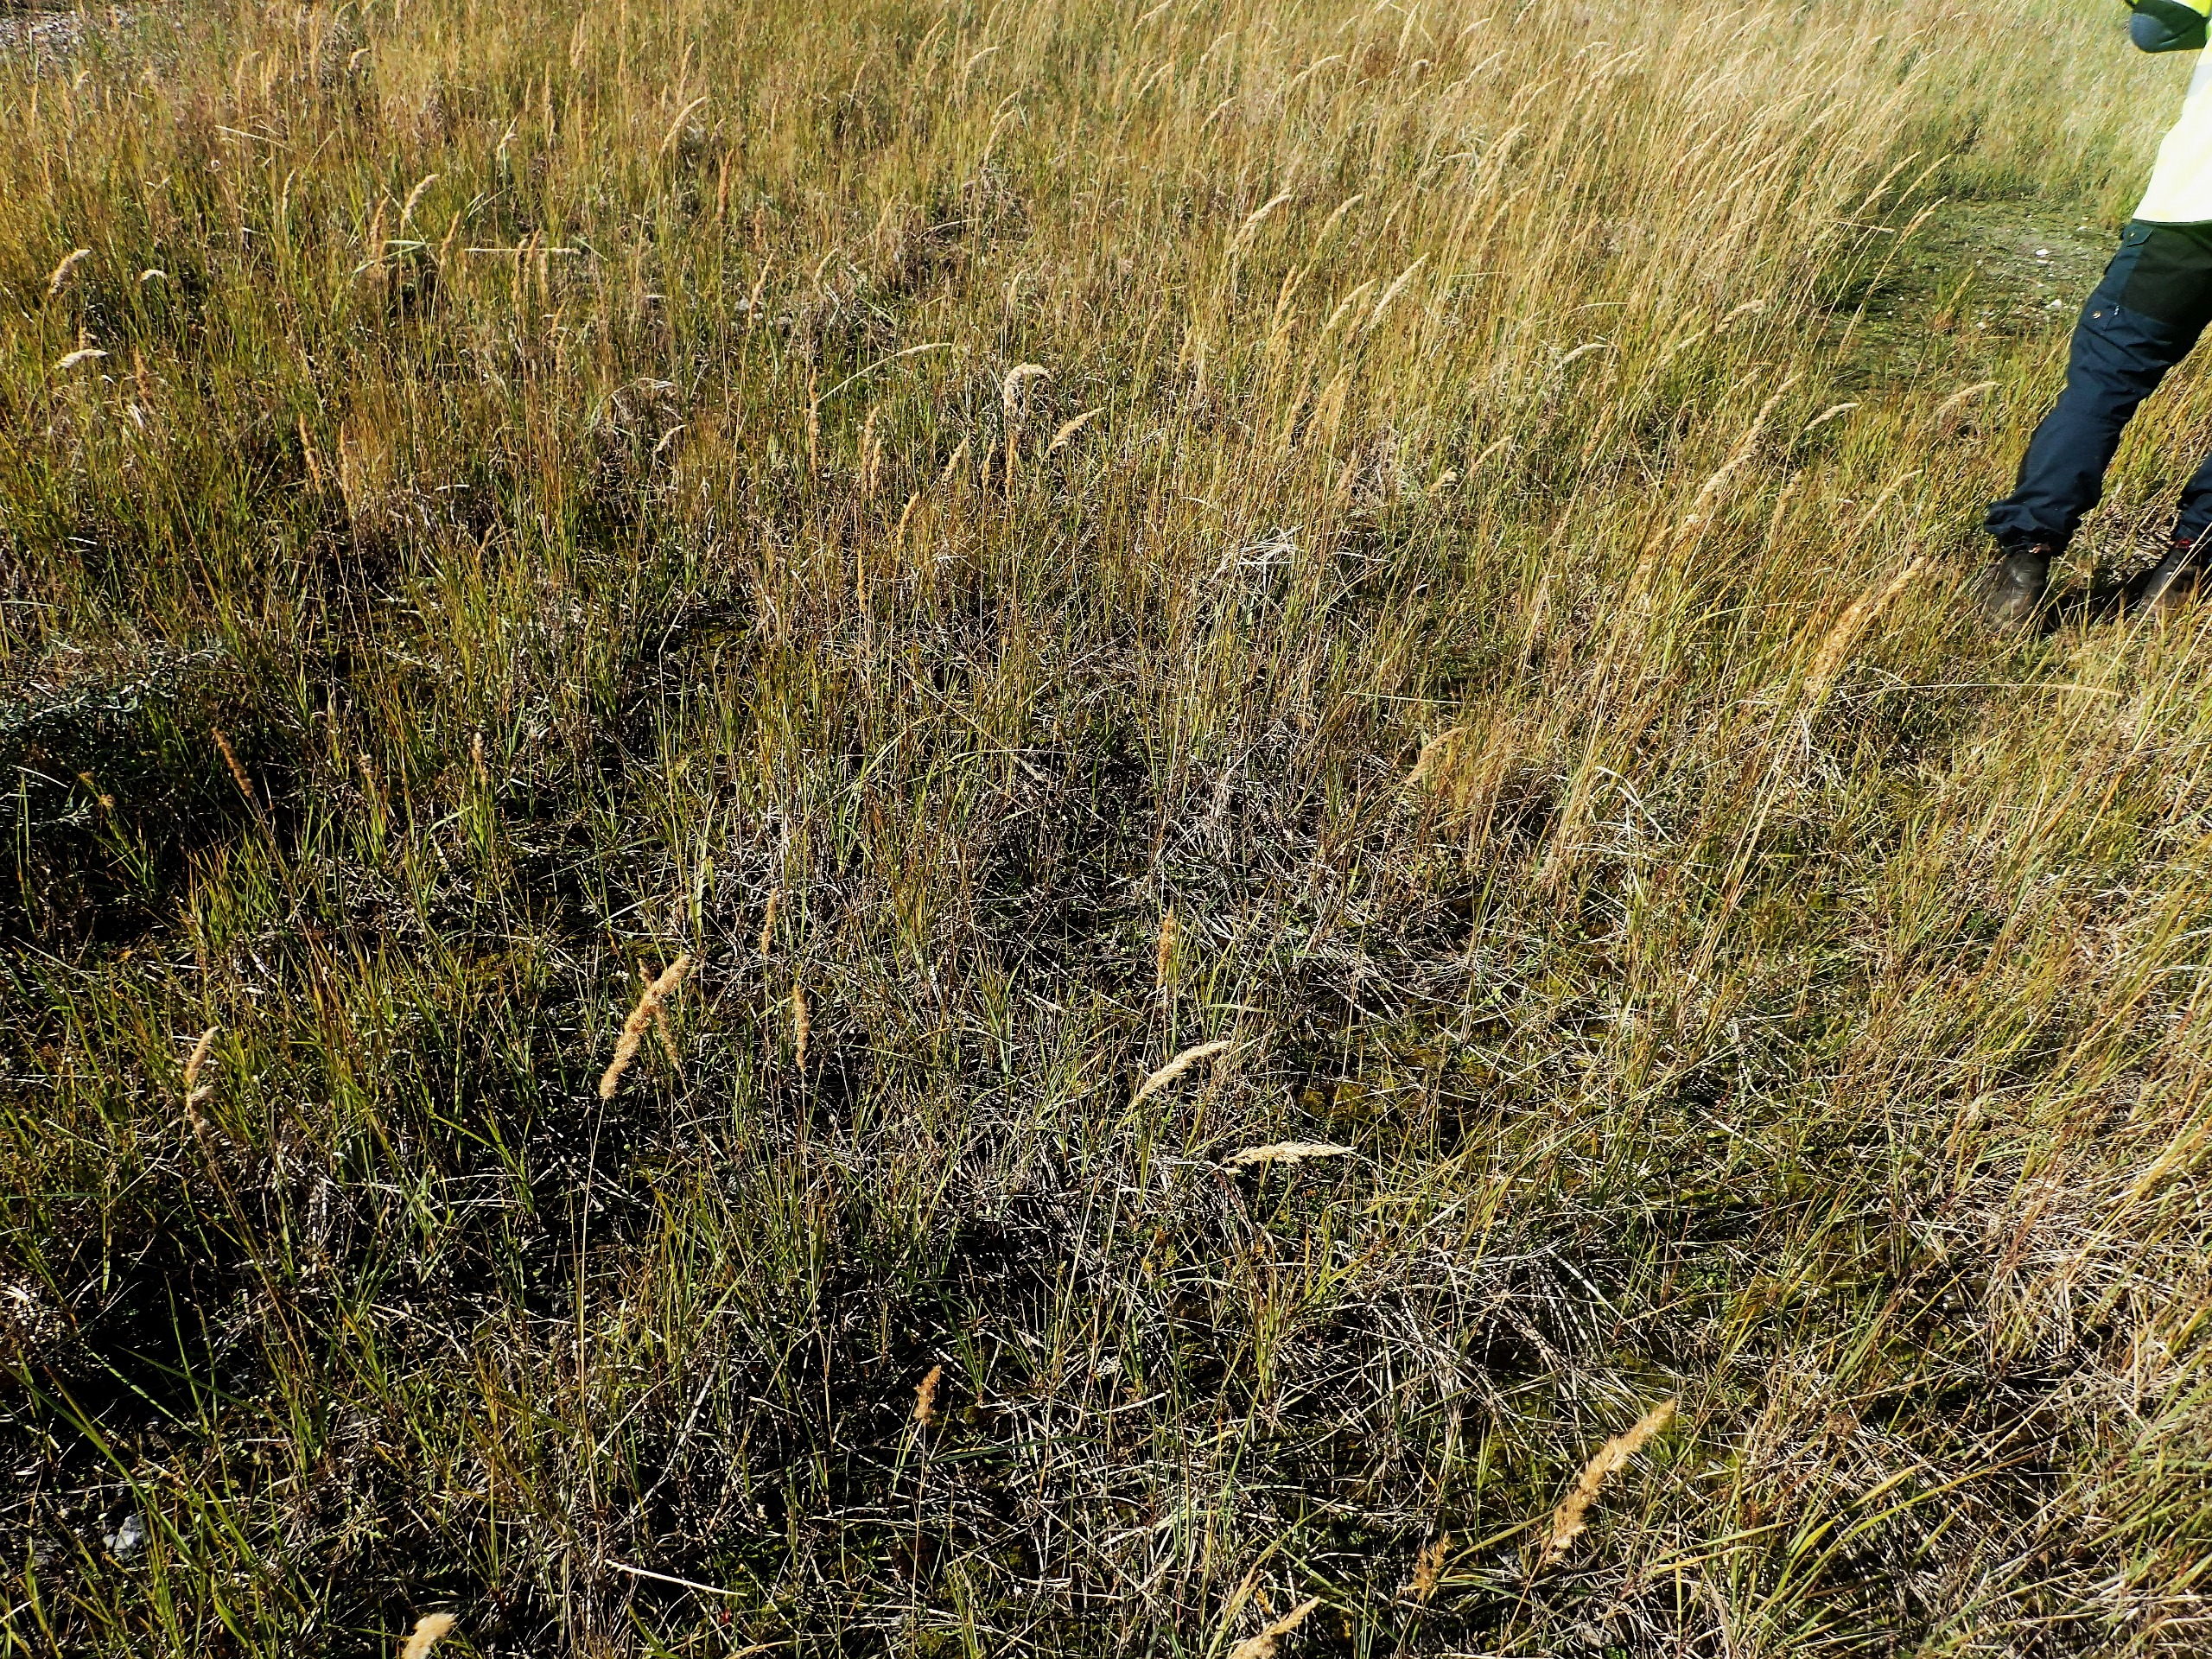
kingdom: Plantae
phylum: Tracheophyta
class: Liliopsida
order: Poales
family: Poaceae
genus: Calamagrostis
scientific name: Calamagrostis epigejos
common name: Bjerg-rørhvene
